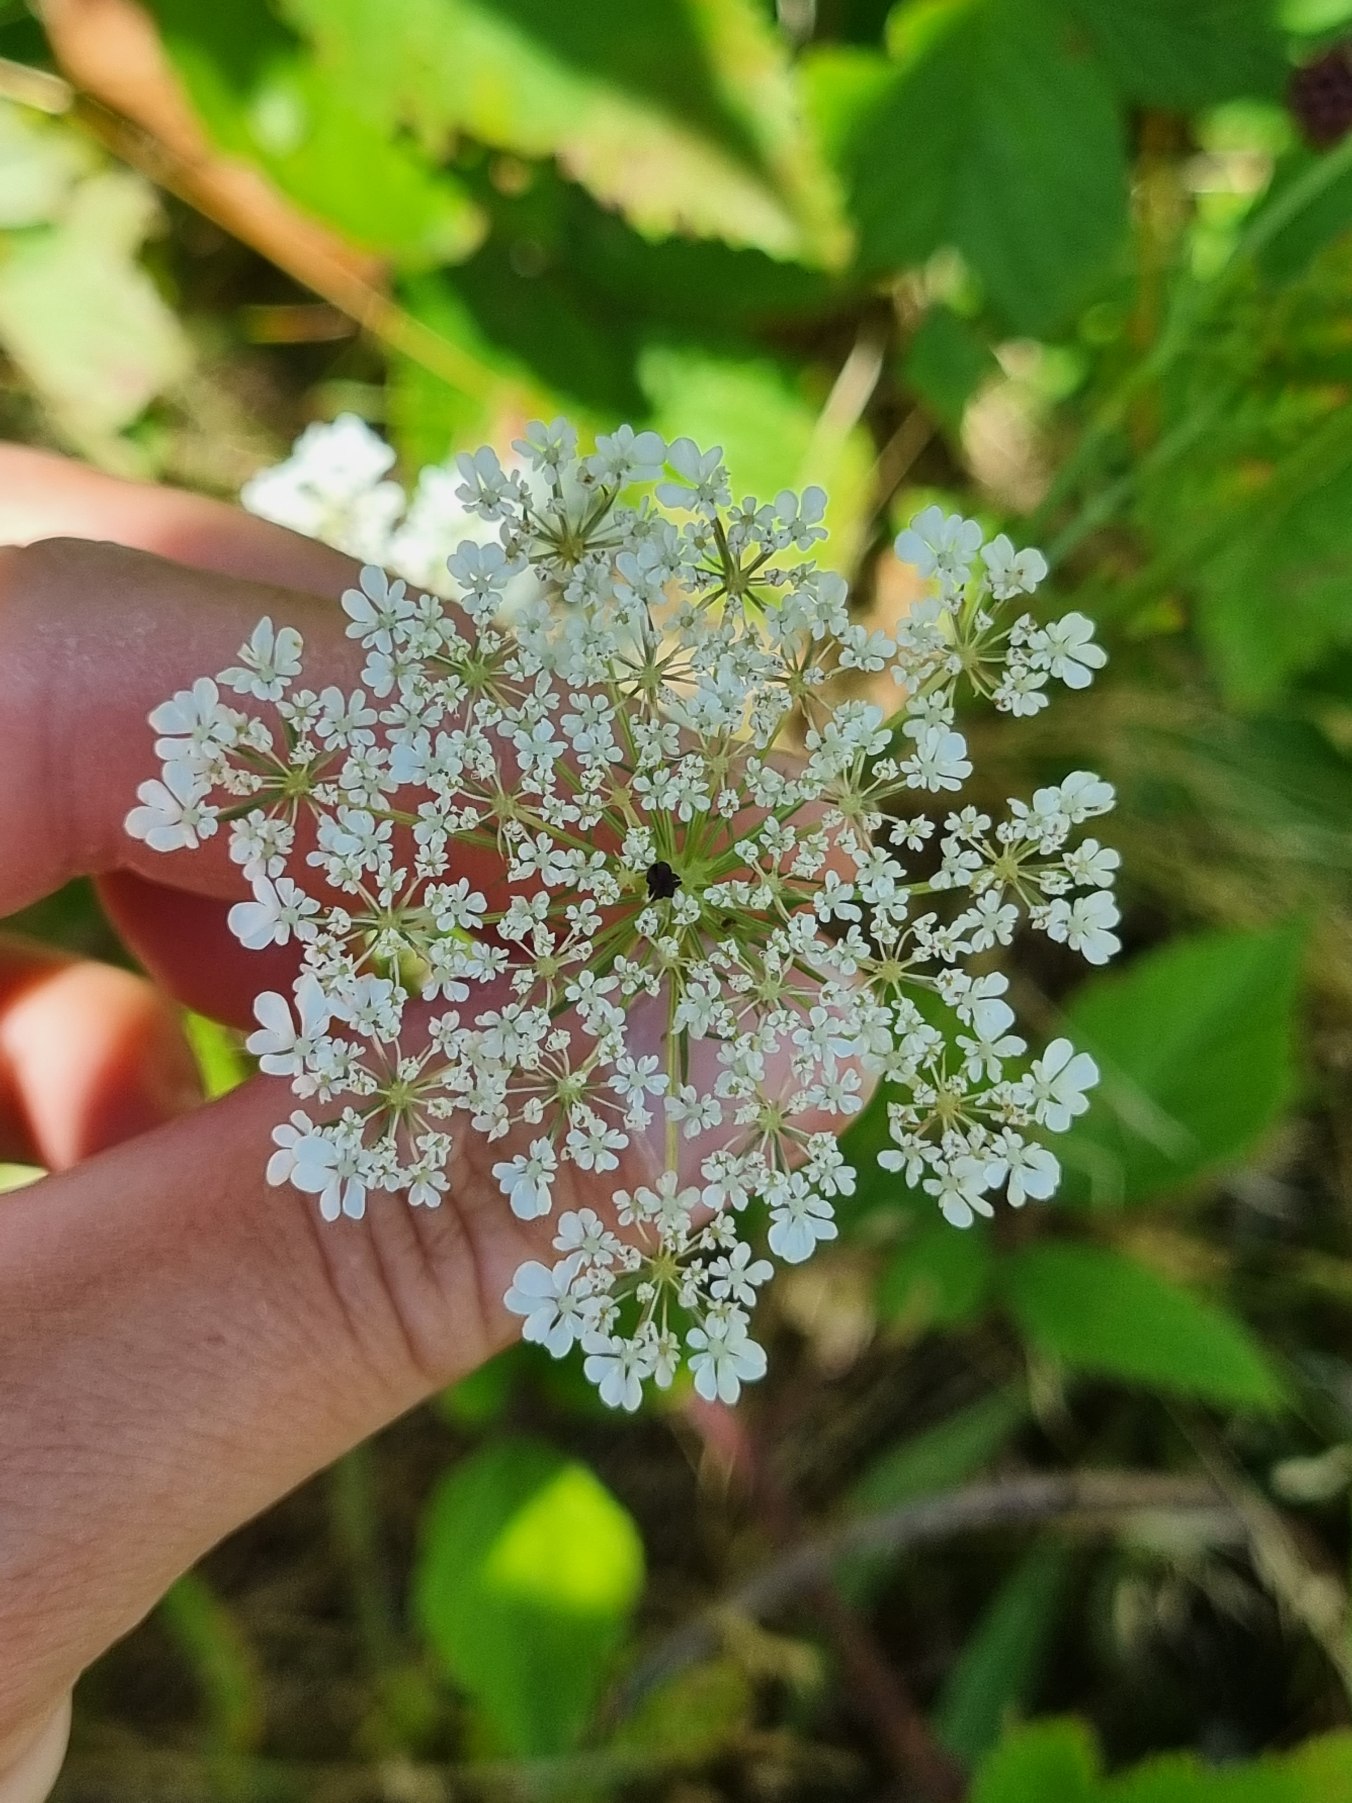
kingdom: Plantae
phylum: Tracheophyta
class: Magnoliopsida
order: Apiales
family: Apiaceae
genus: Daucus
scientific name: Daucus carota
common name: Vild gulerod
